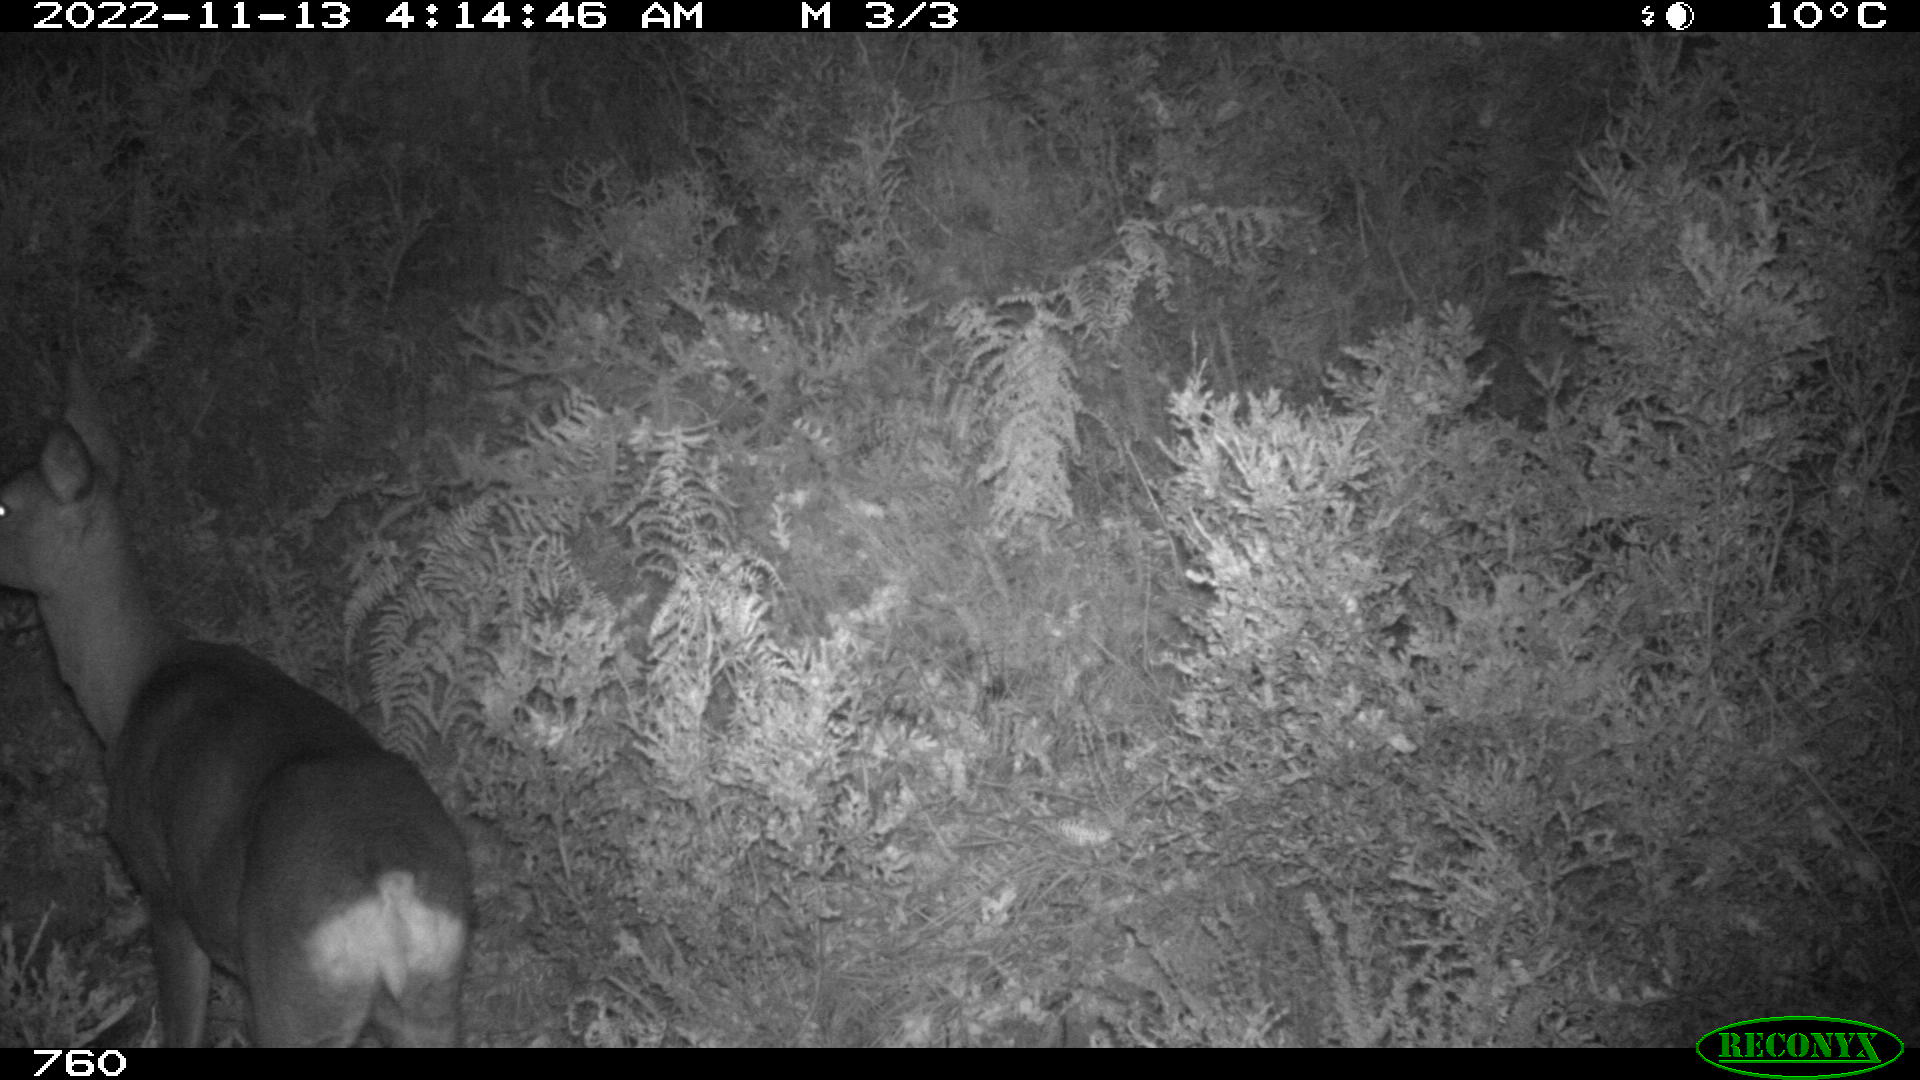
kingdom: Animalia
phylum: Chordata
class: Mammalia
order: Artiodactyla
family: Cervidae
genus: Capreolus
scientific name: Capreolus capreolus
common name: Western roe deer
